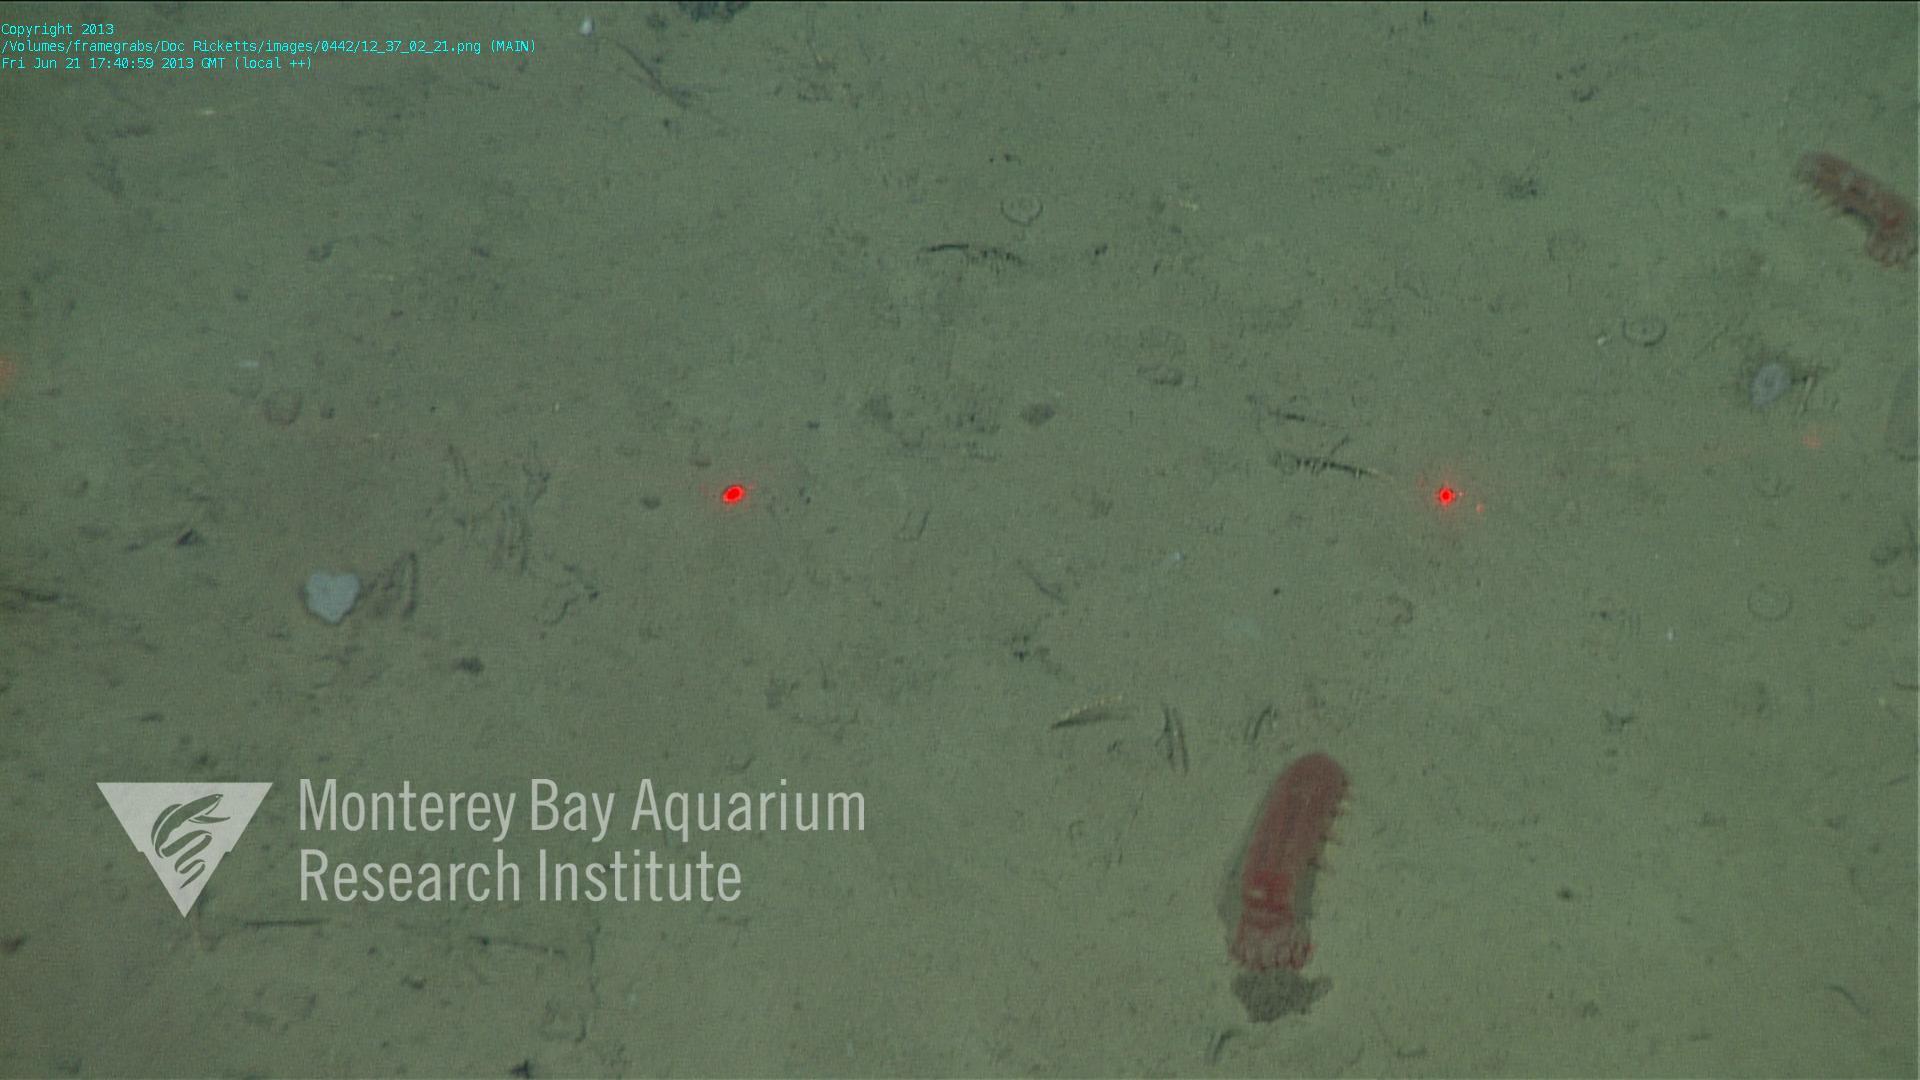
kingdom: Animalia
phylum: Porifera
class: Hexactinellida
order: Lyssacinosida
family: Euplectellidae
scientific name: Euplectellidae
